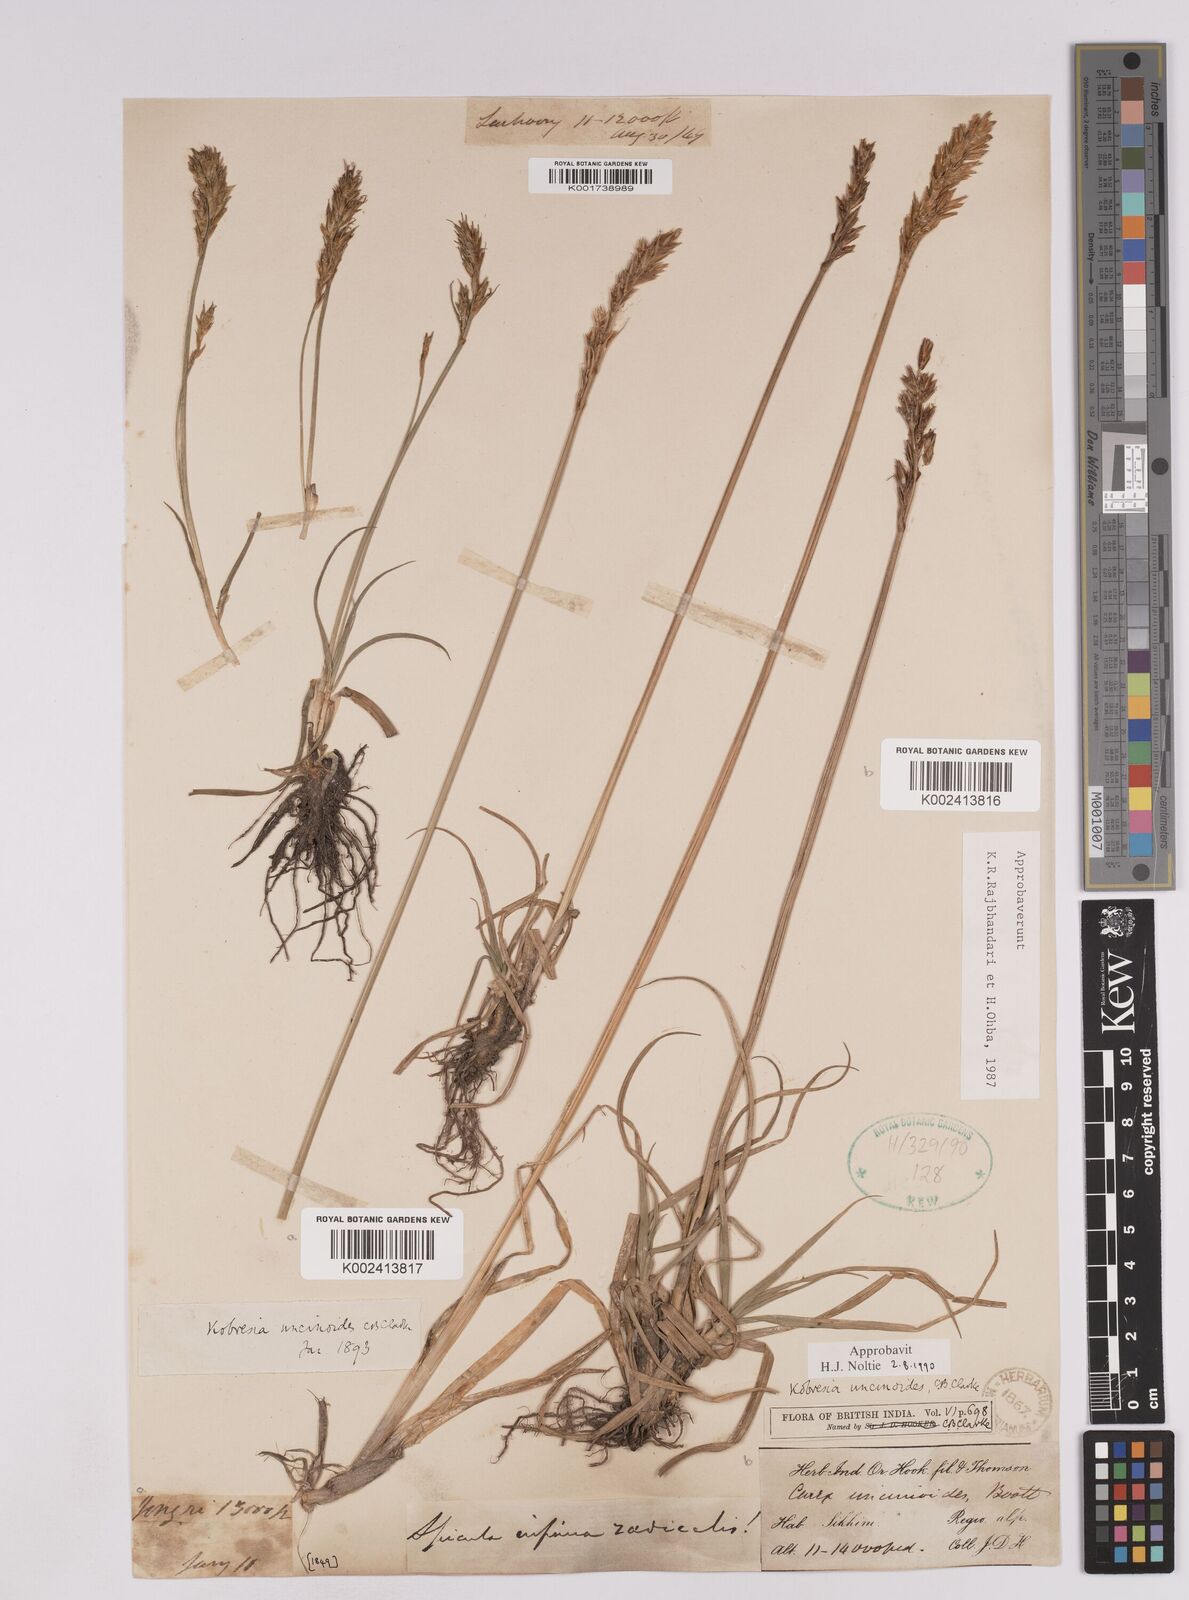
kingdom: Plantae
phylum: Tracheophyta
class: Liliopsida
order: Poales
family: Cyperaceae
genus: Carex
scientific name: Carex uncinioides
